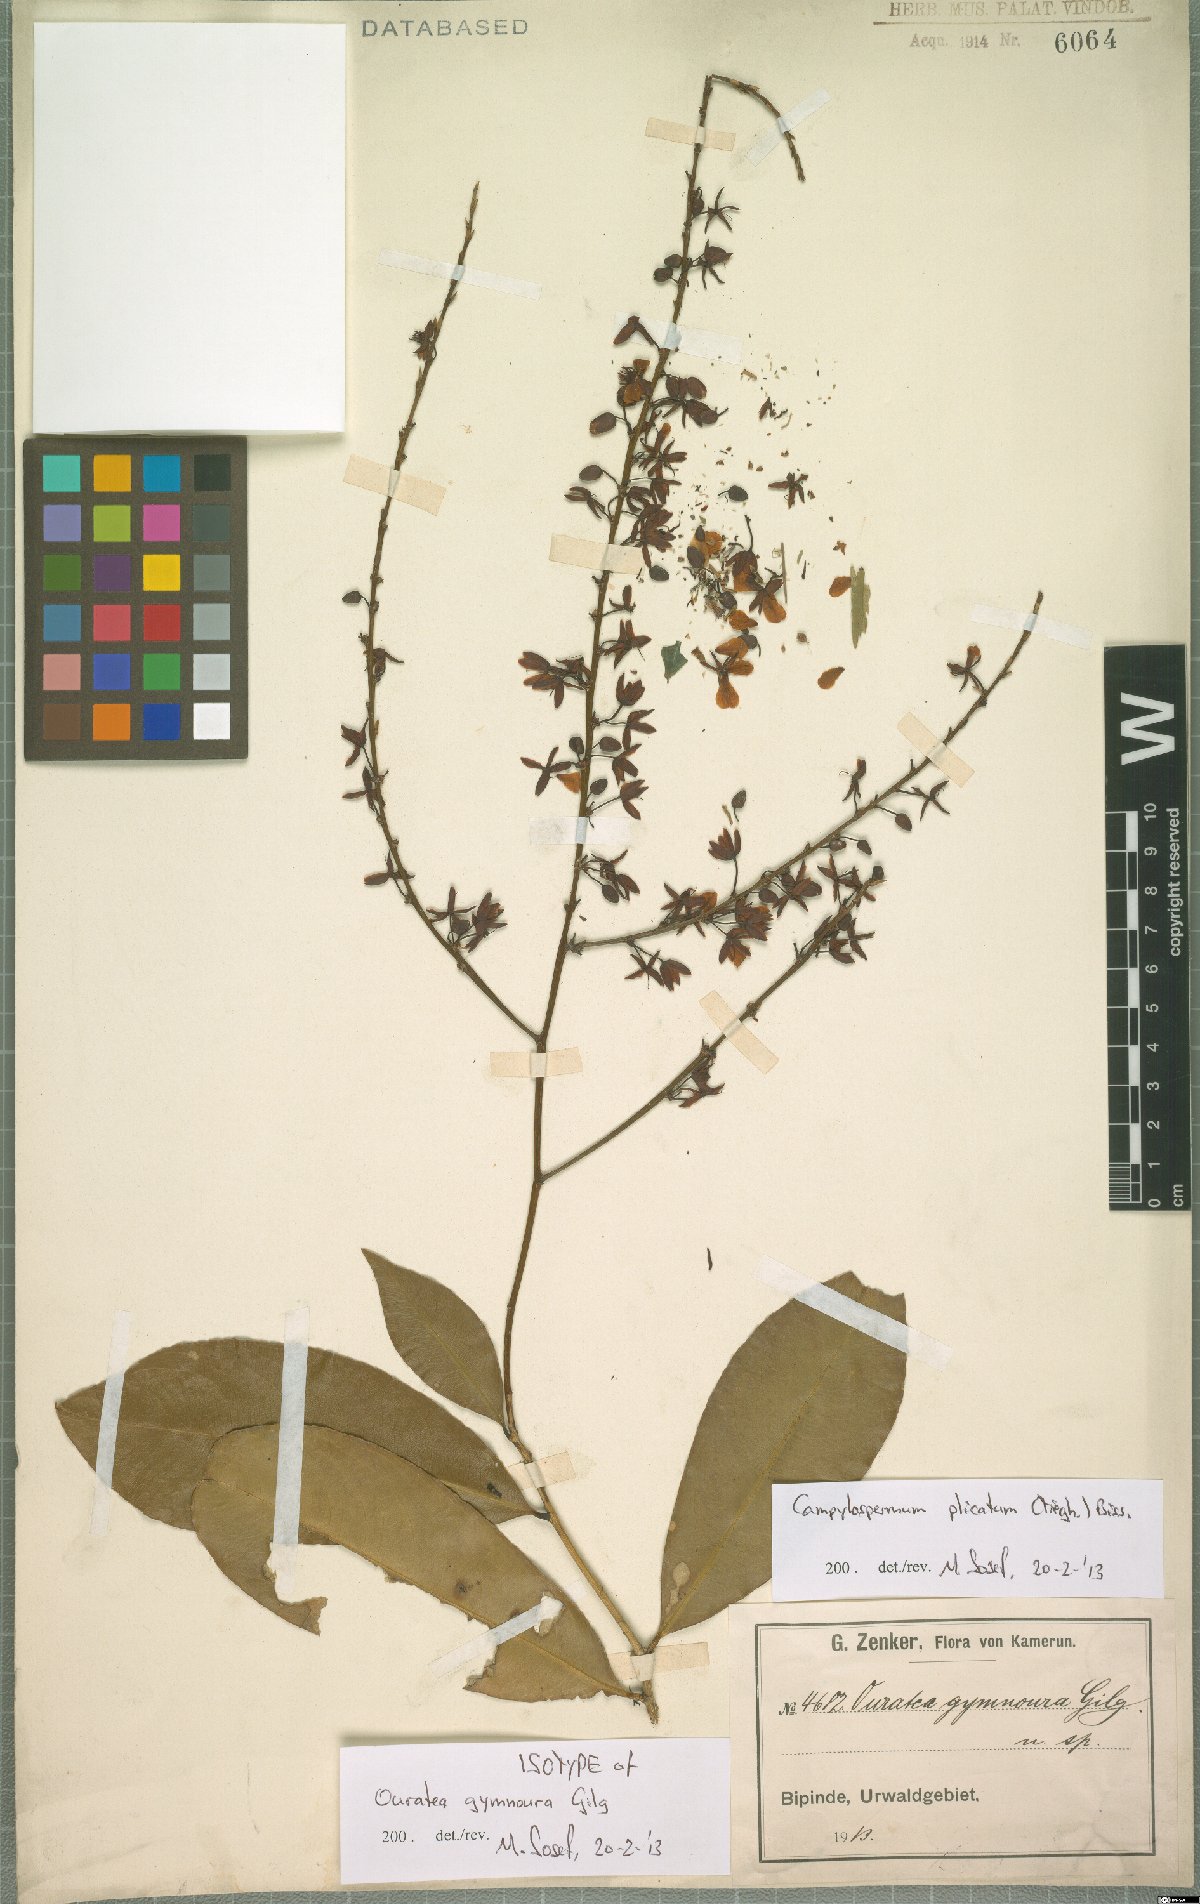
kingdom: Plantae
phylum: Tracheophyta
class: Magnoliopsida
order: Malpighiales
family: Ochnaceae
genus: Campylospermum
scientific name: Campylospermum strictum
